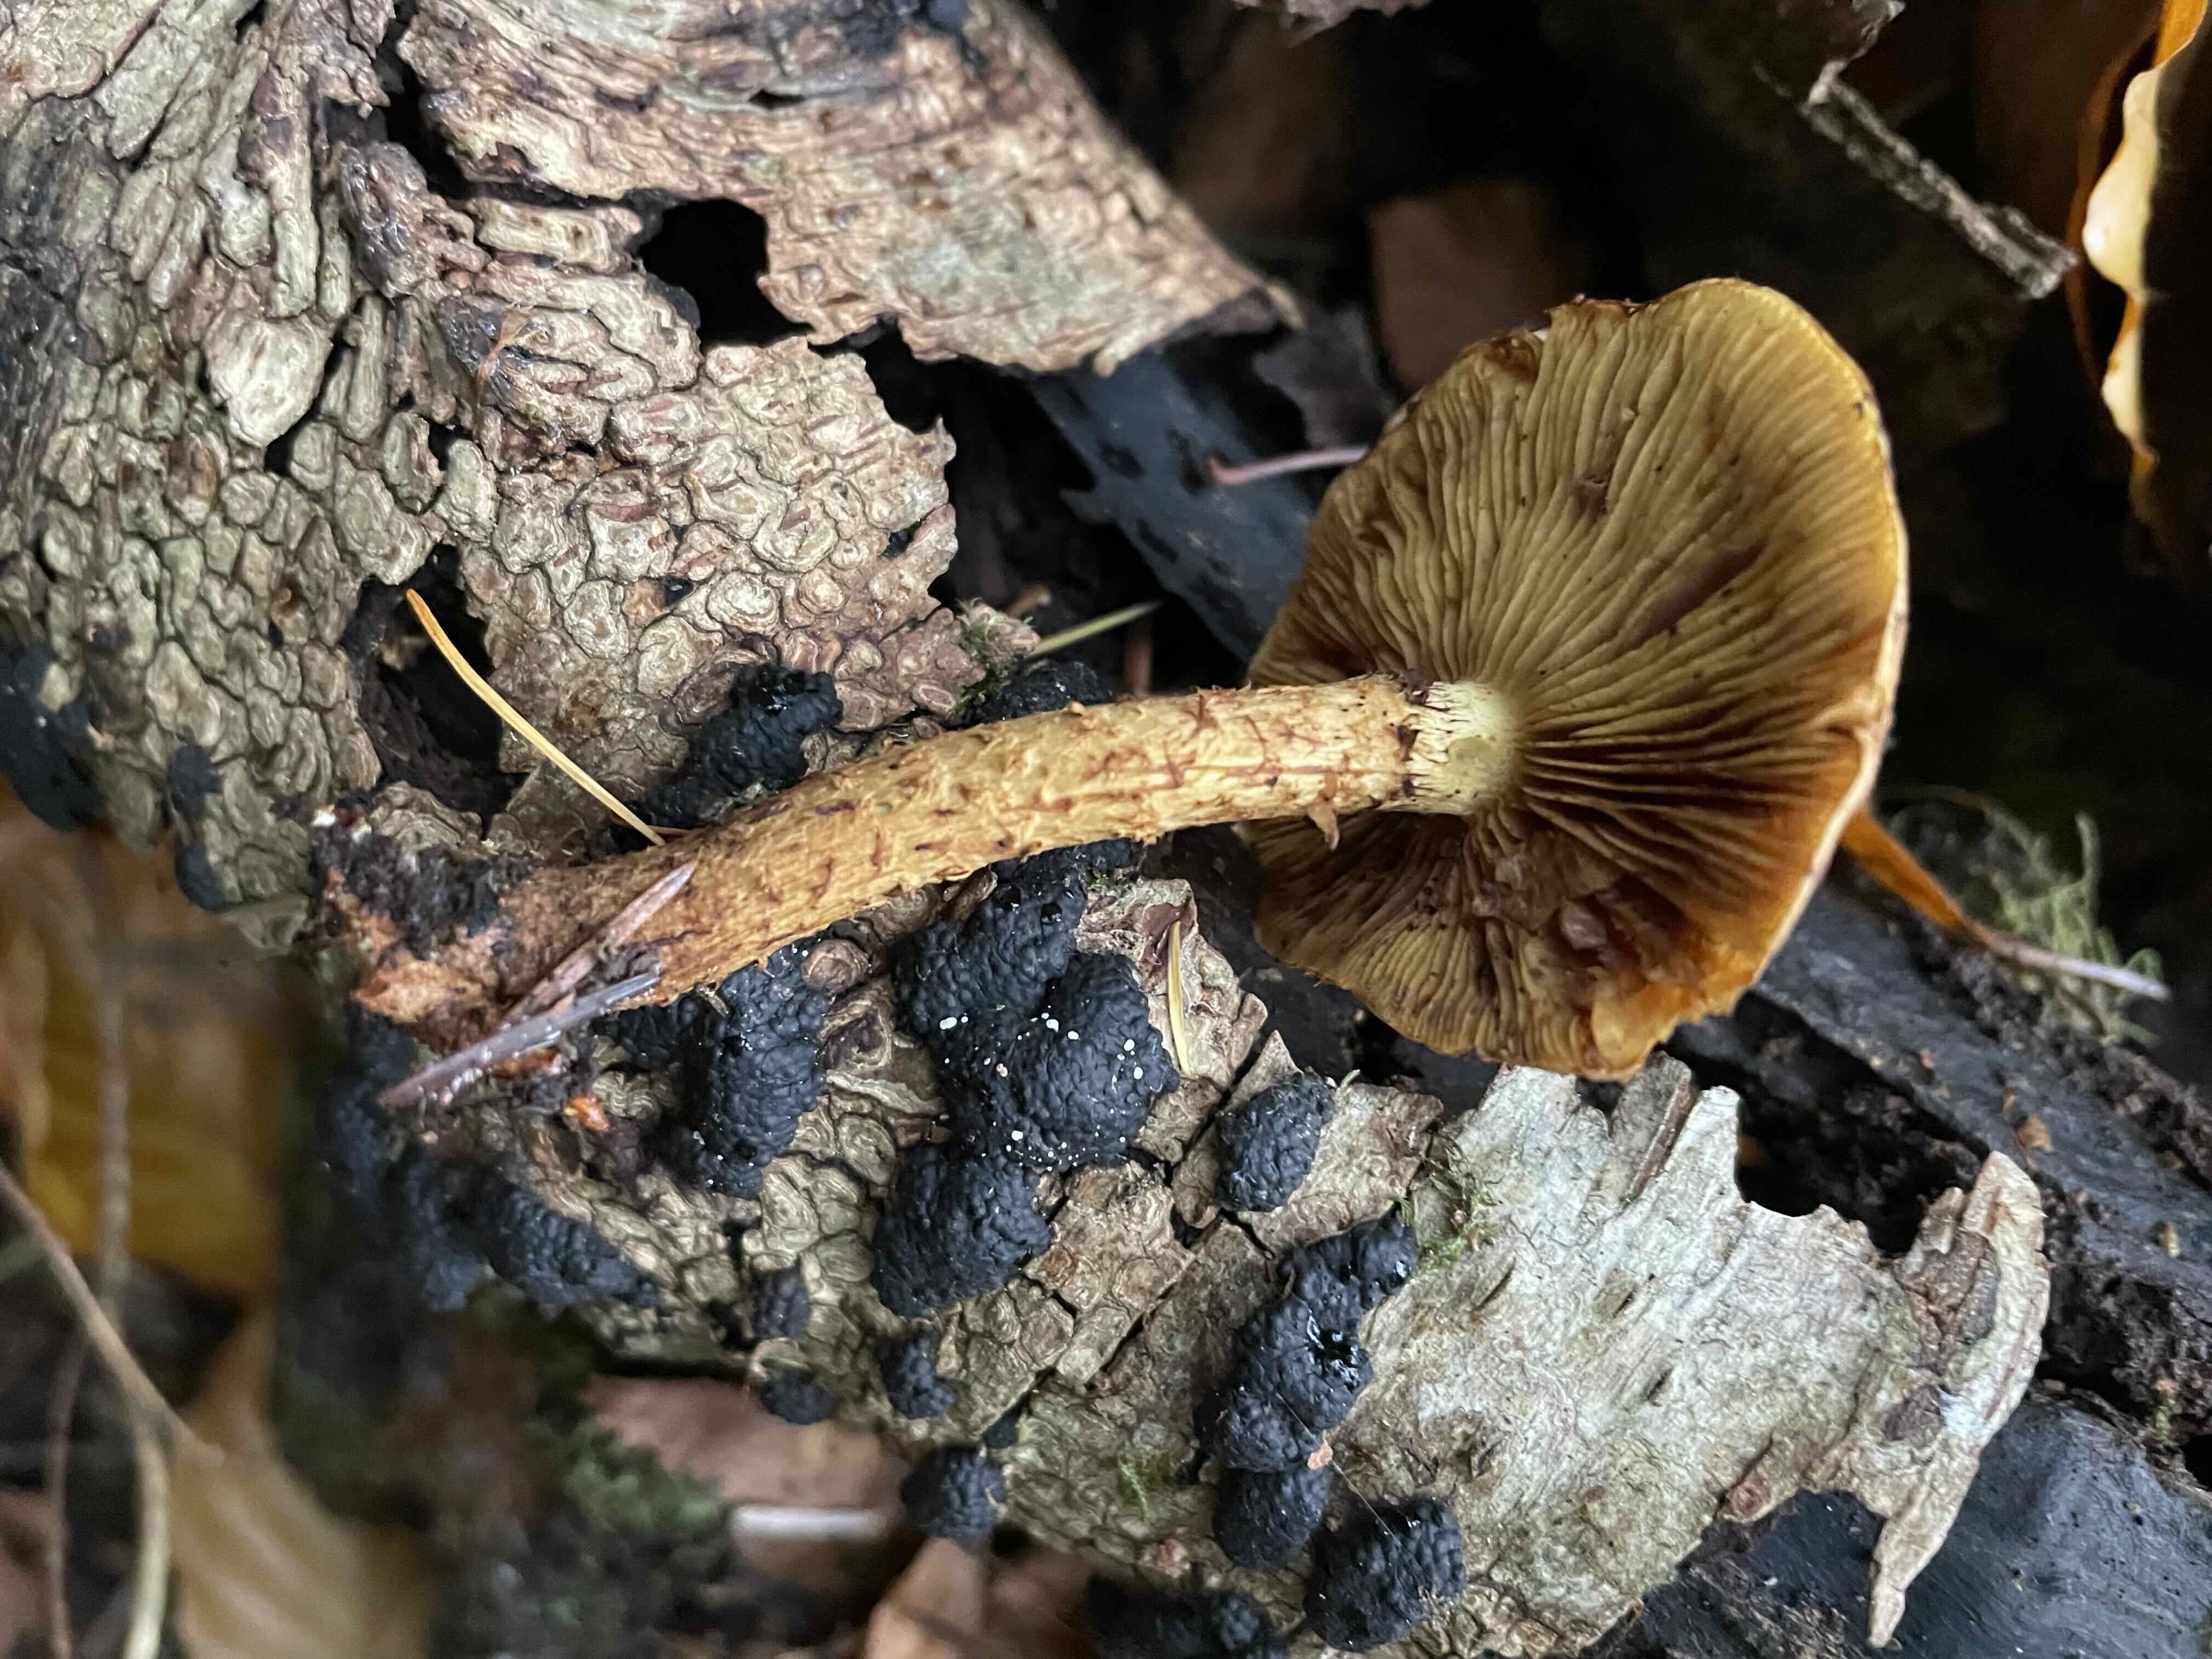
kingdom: Fungi
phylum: Ascomycota
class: Sordariomycetes
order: Xylariales
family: Hypoxylaceae
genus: Jackrogersella
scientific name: Jackrogersella multiformis
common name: foranderlig kulbær
